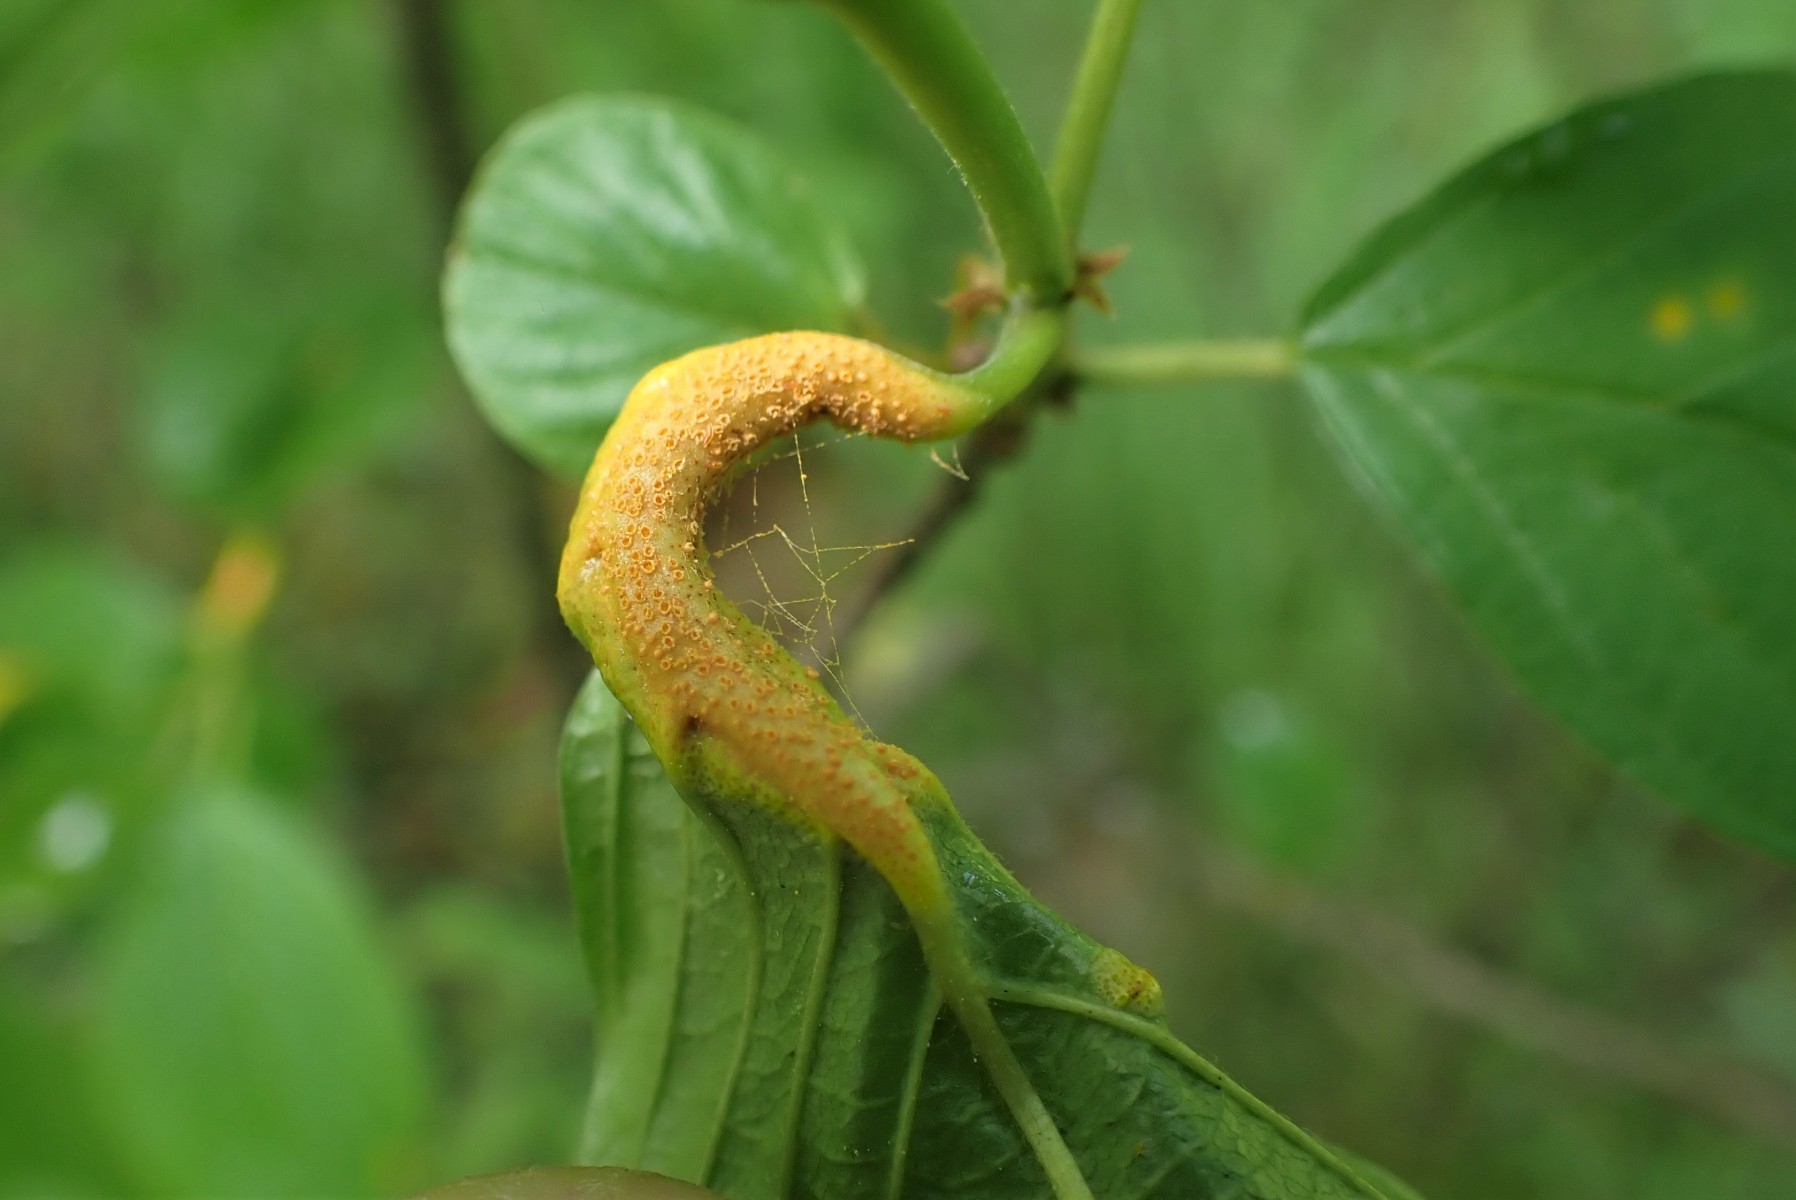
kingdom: Fungi
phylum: Basidiomycota
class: Pucciniomycetes
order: Pucciniales
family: Pucciniaceae
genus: Puccinia
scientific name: Puccinia coronata
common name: Crown rust
